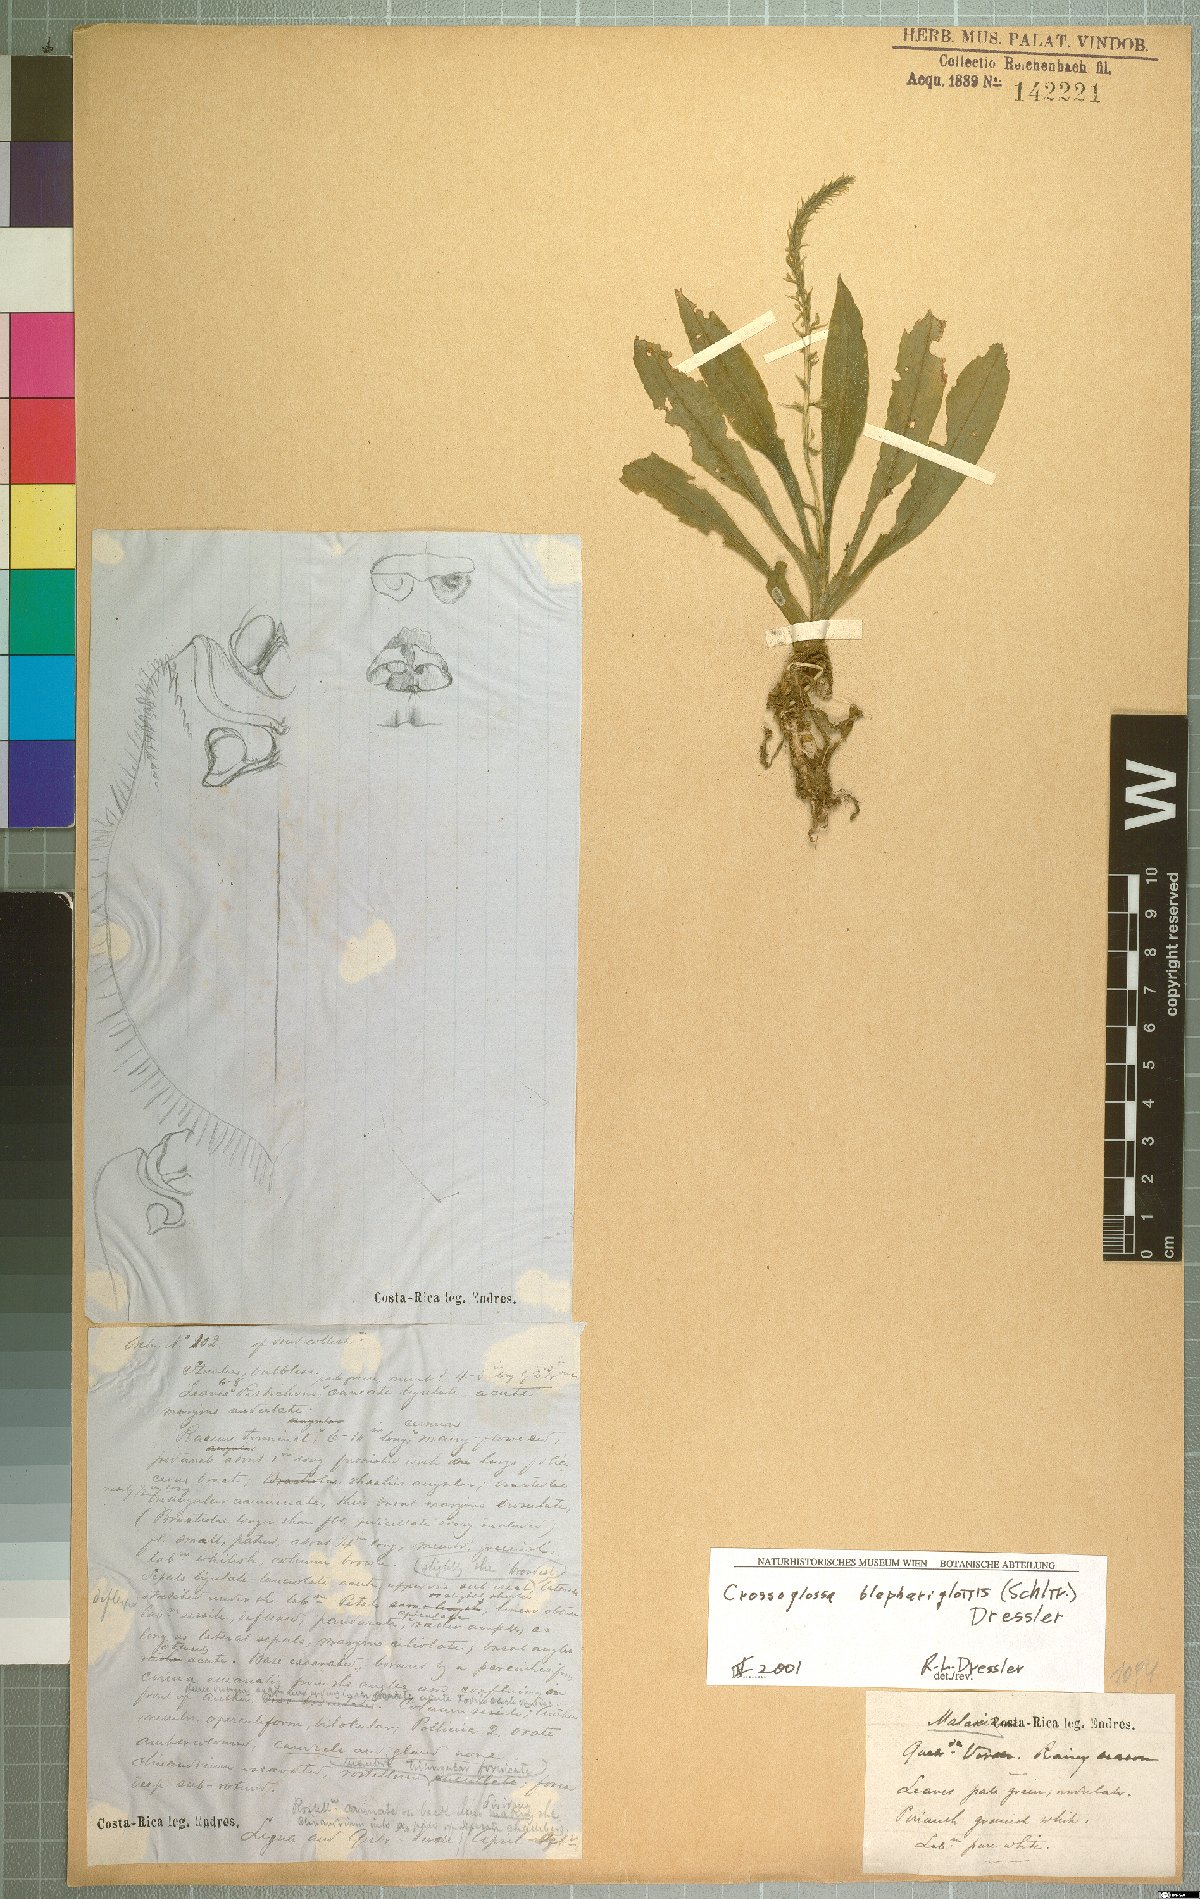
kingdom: Plantae
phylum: Tracheophyta
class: Liliopsida
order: Asparagales
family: Orchidaceae
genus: Crossoglossa
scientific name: Crossoglossa blephariglottis
